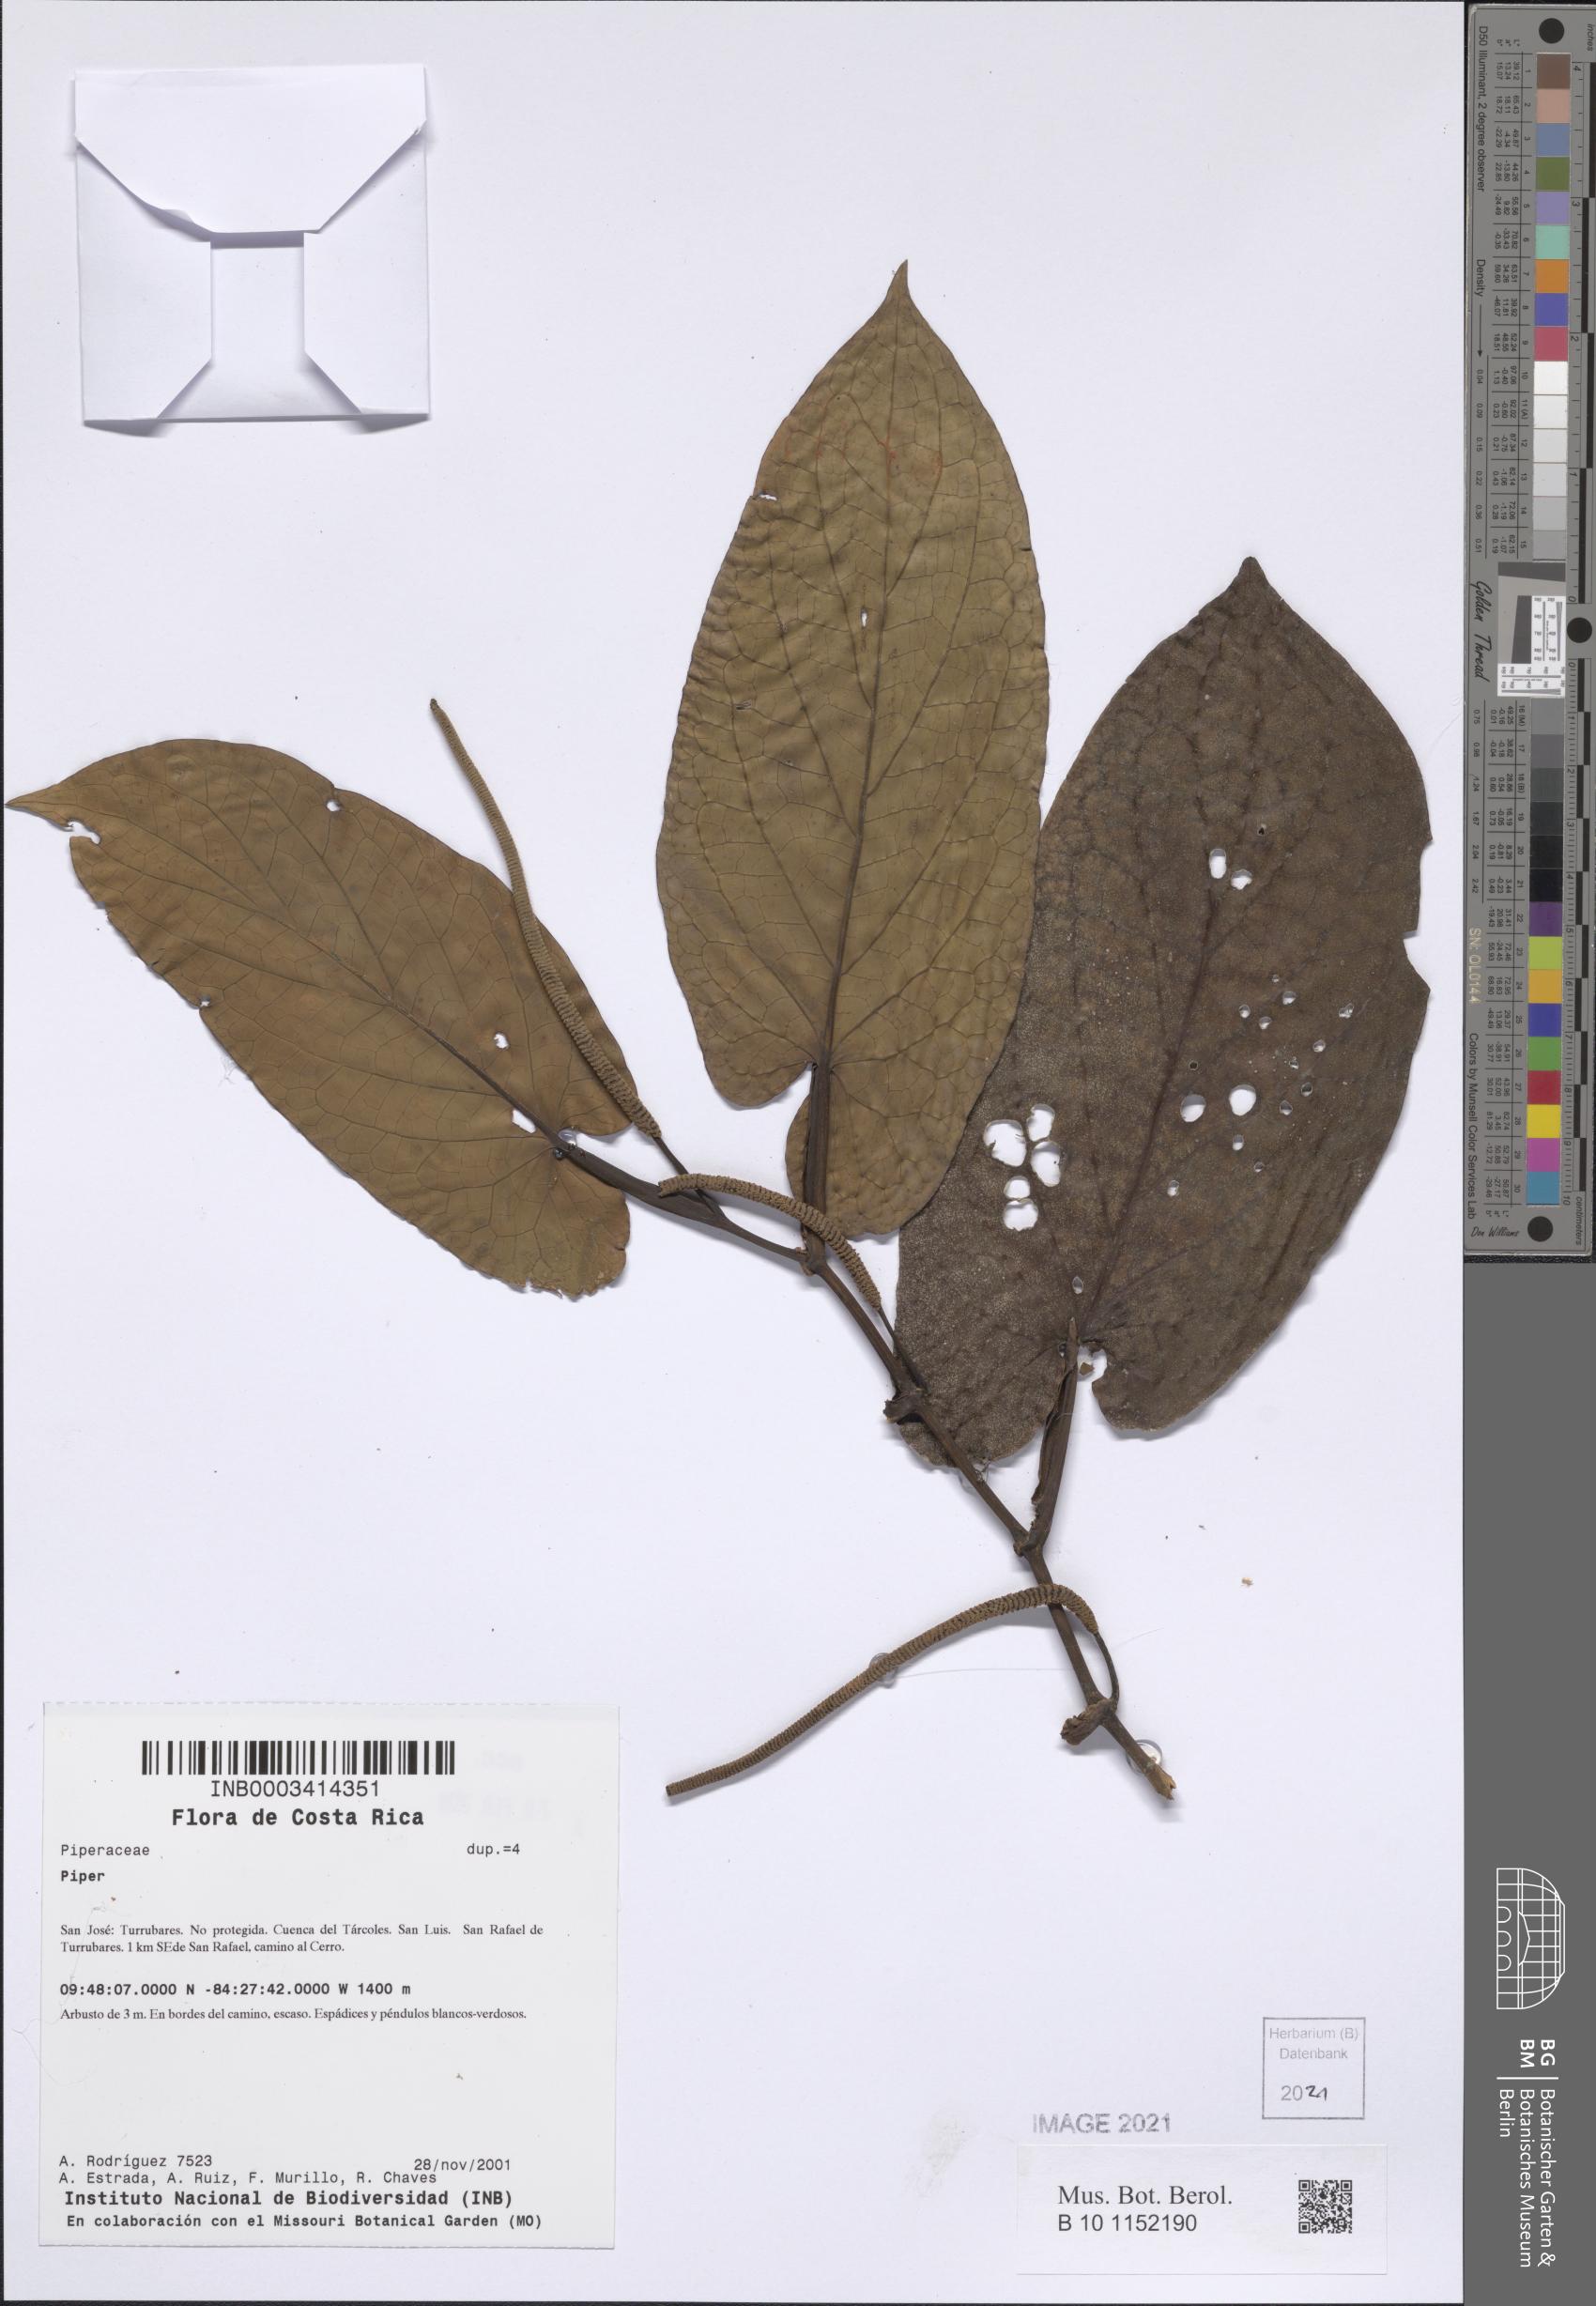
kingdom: Plantae
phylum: Tracheophyta
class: Magnoliopsida
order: Piperales
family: Piperaceae
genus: Piper
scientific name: Piper
